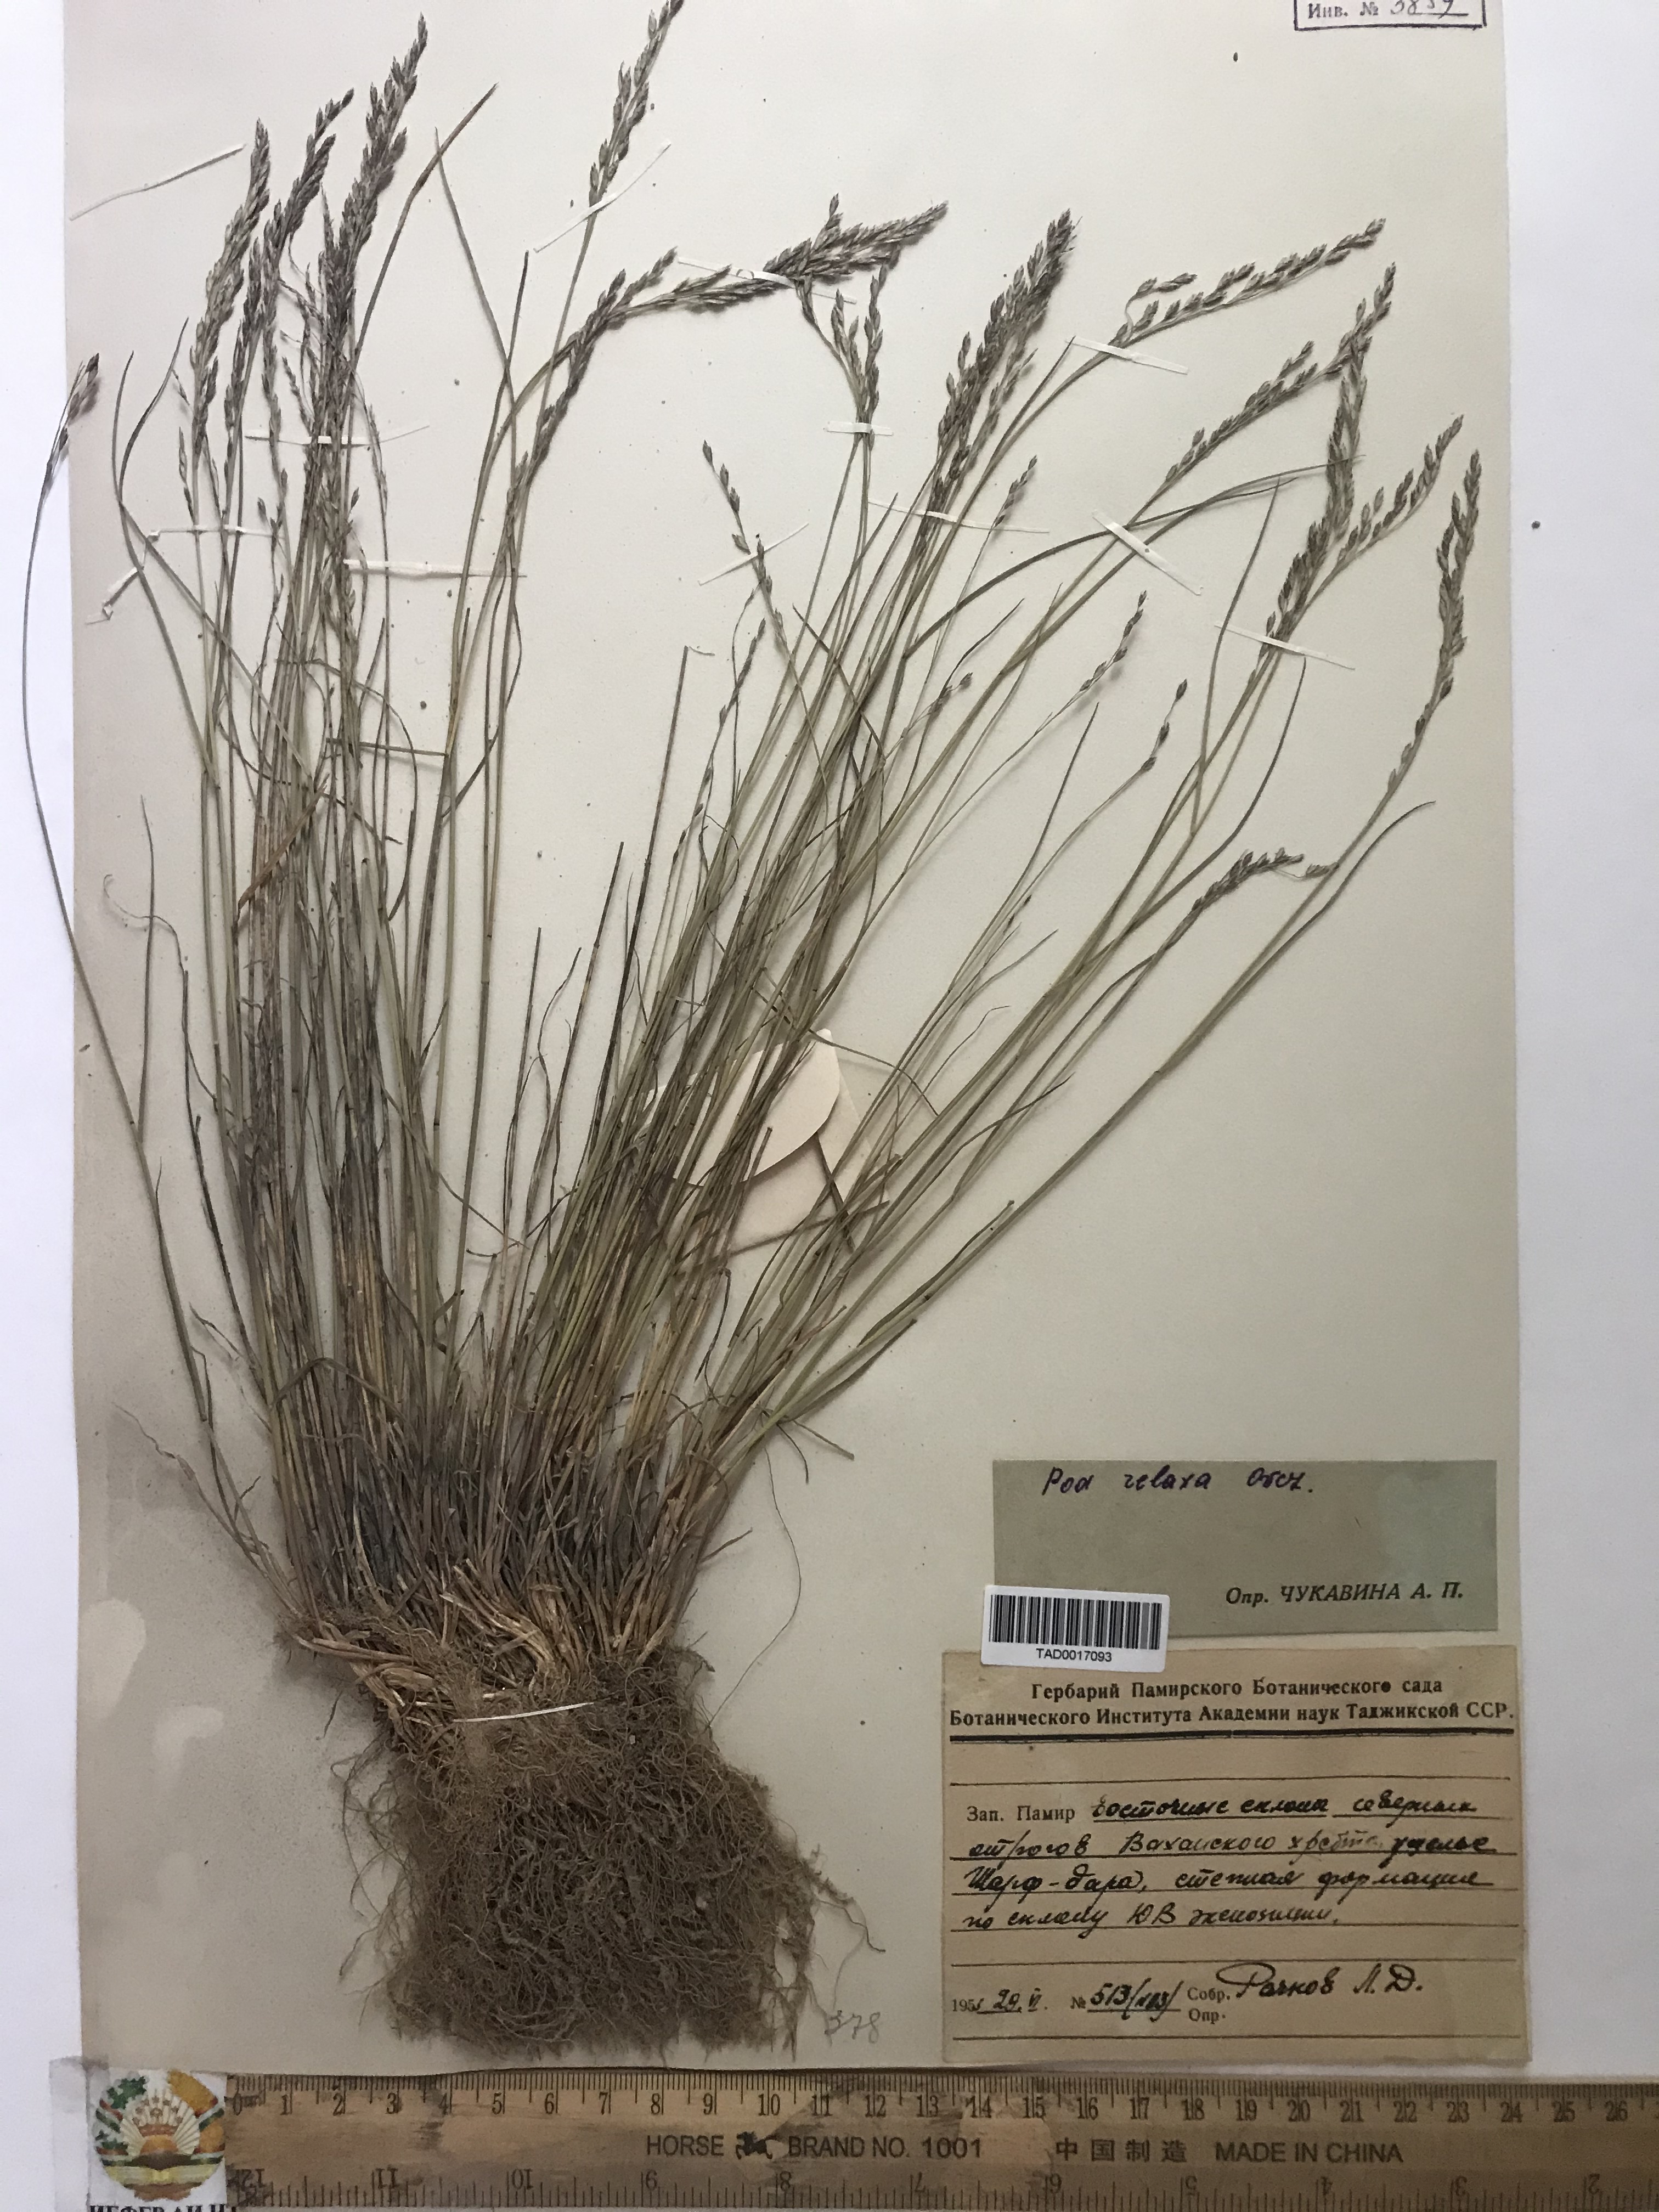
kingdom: Plantae
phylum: Tracheophyta
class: Liliopsida
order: Poales
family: Poaceae
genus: Poa
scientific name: Poa versicolor
